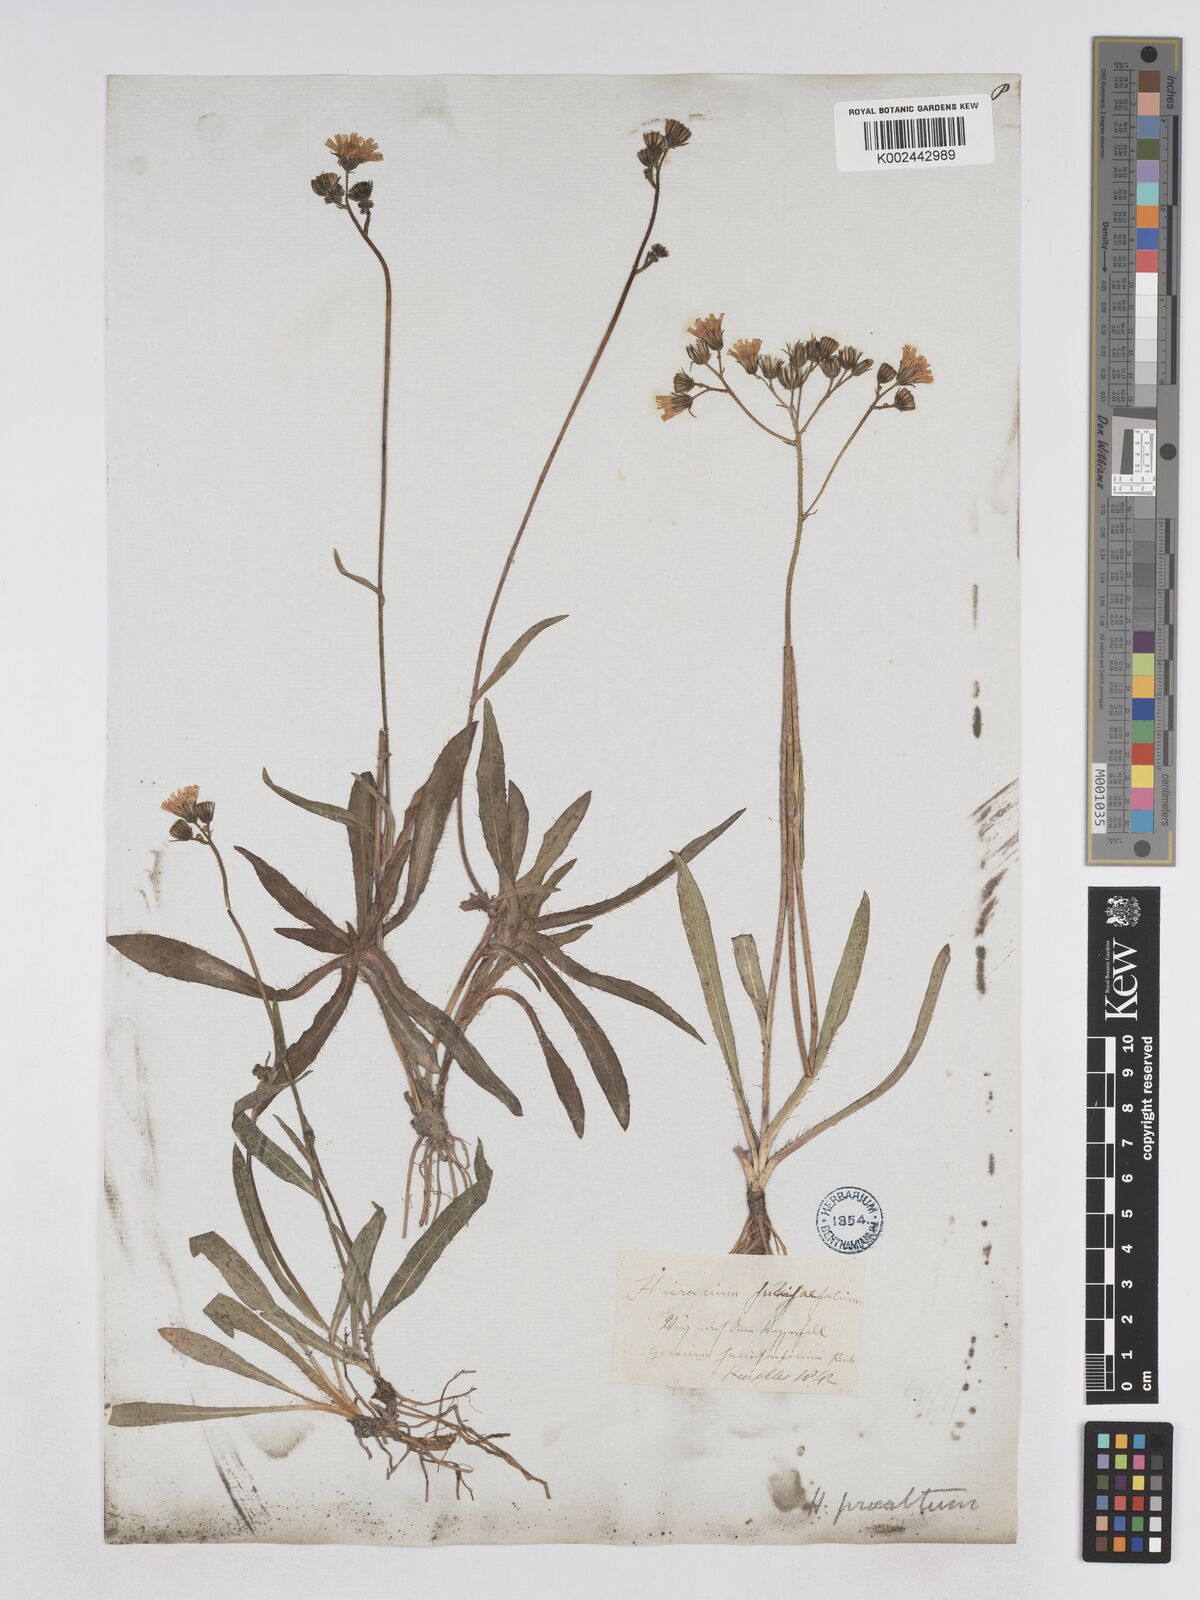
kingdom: Plantae
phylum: Tracheophyta
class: Magnoliopsida
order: Asterales
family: Asteraceae
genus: Pilosella
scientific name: Pilosella piloselloides
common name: Glaucous king-devil
